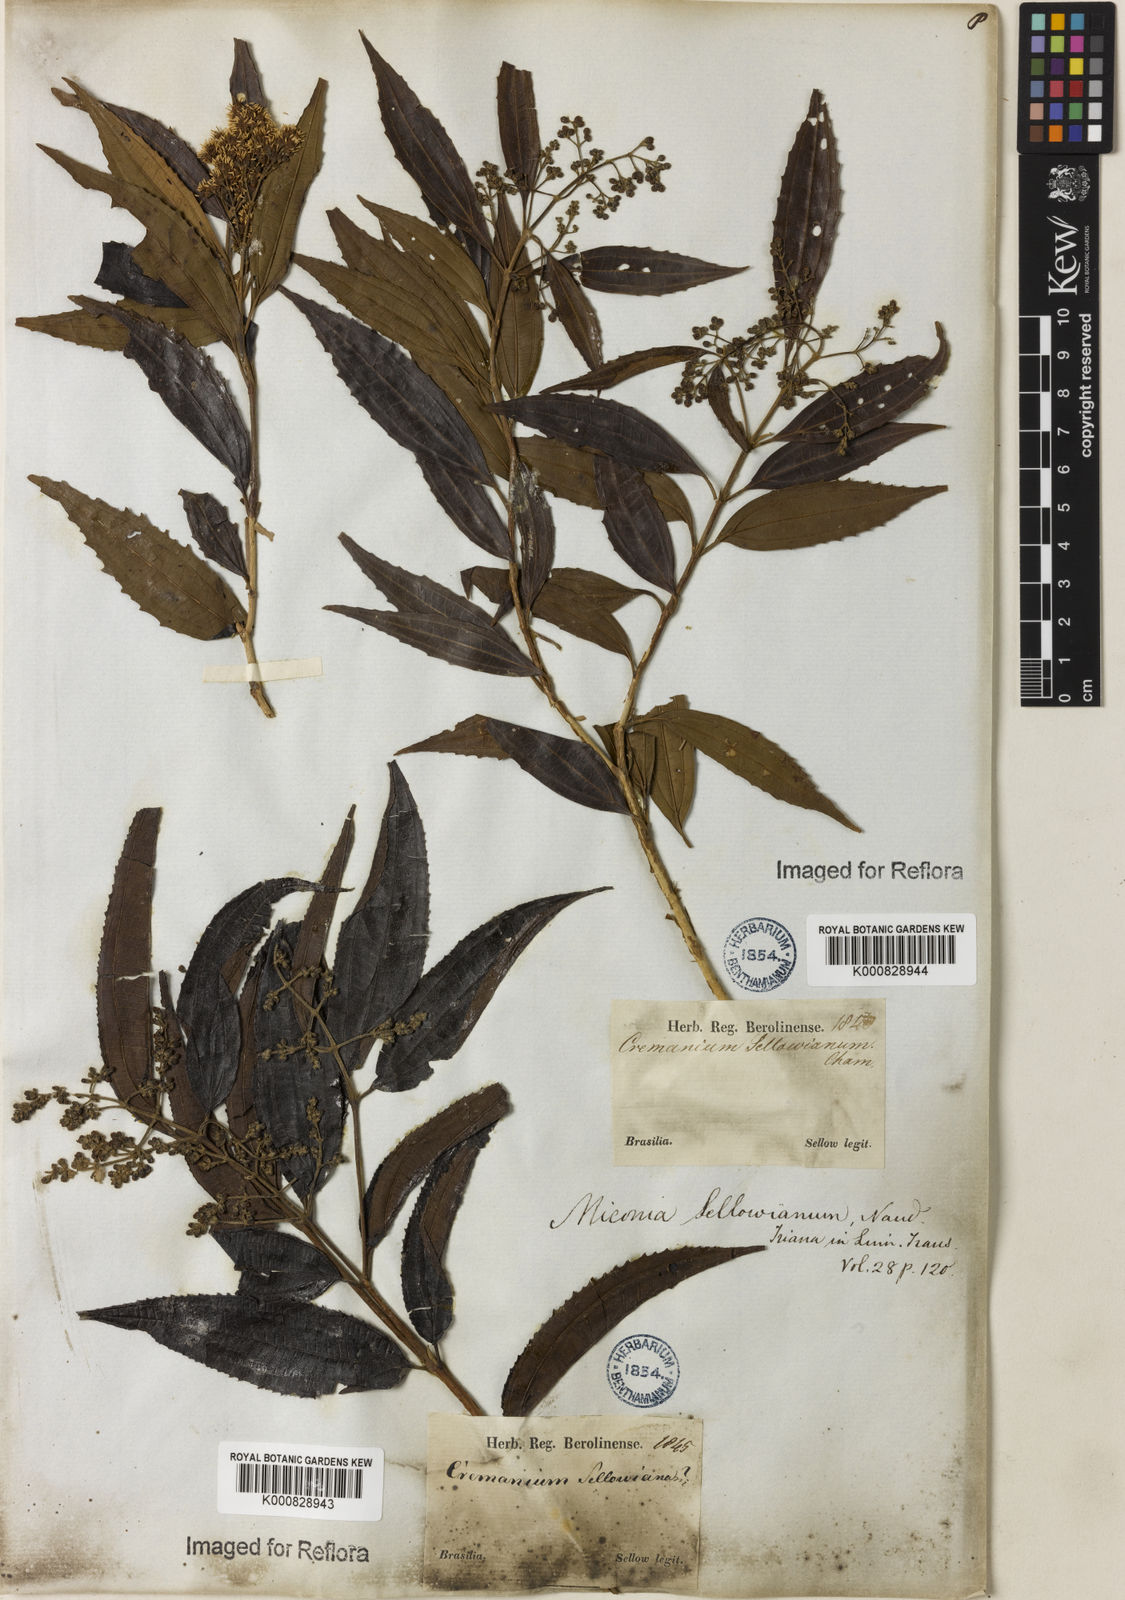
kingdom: Plantae
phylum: Tracheophyta
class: Magnoliopsida
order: Myrtales
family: Melastomataceae
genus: Miconia
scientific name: Miconia sellowiana
